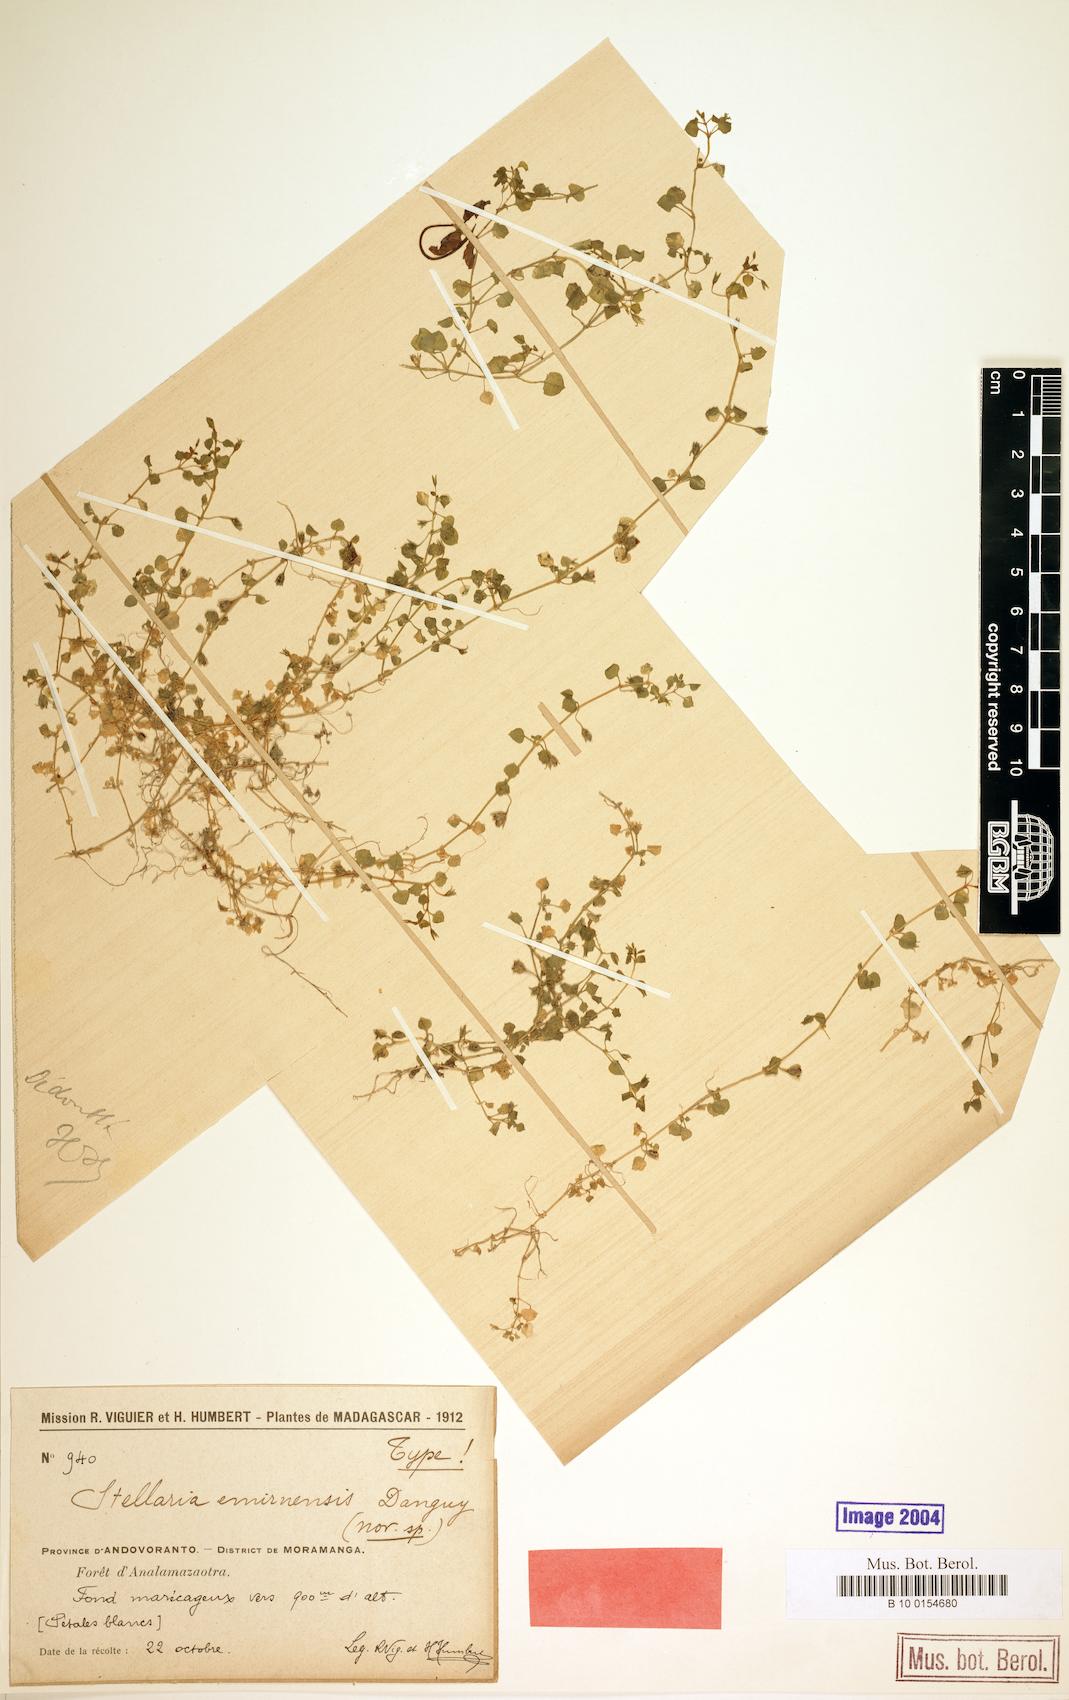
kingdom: Plantae
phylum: Tracheophyta
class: Magnoliopsida
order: Caryophyllales
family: Caryophyllaceae
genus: Stellaria
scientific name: Stellaria emirnensis
